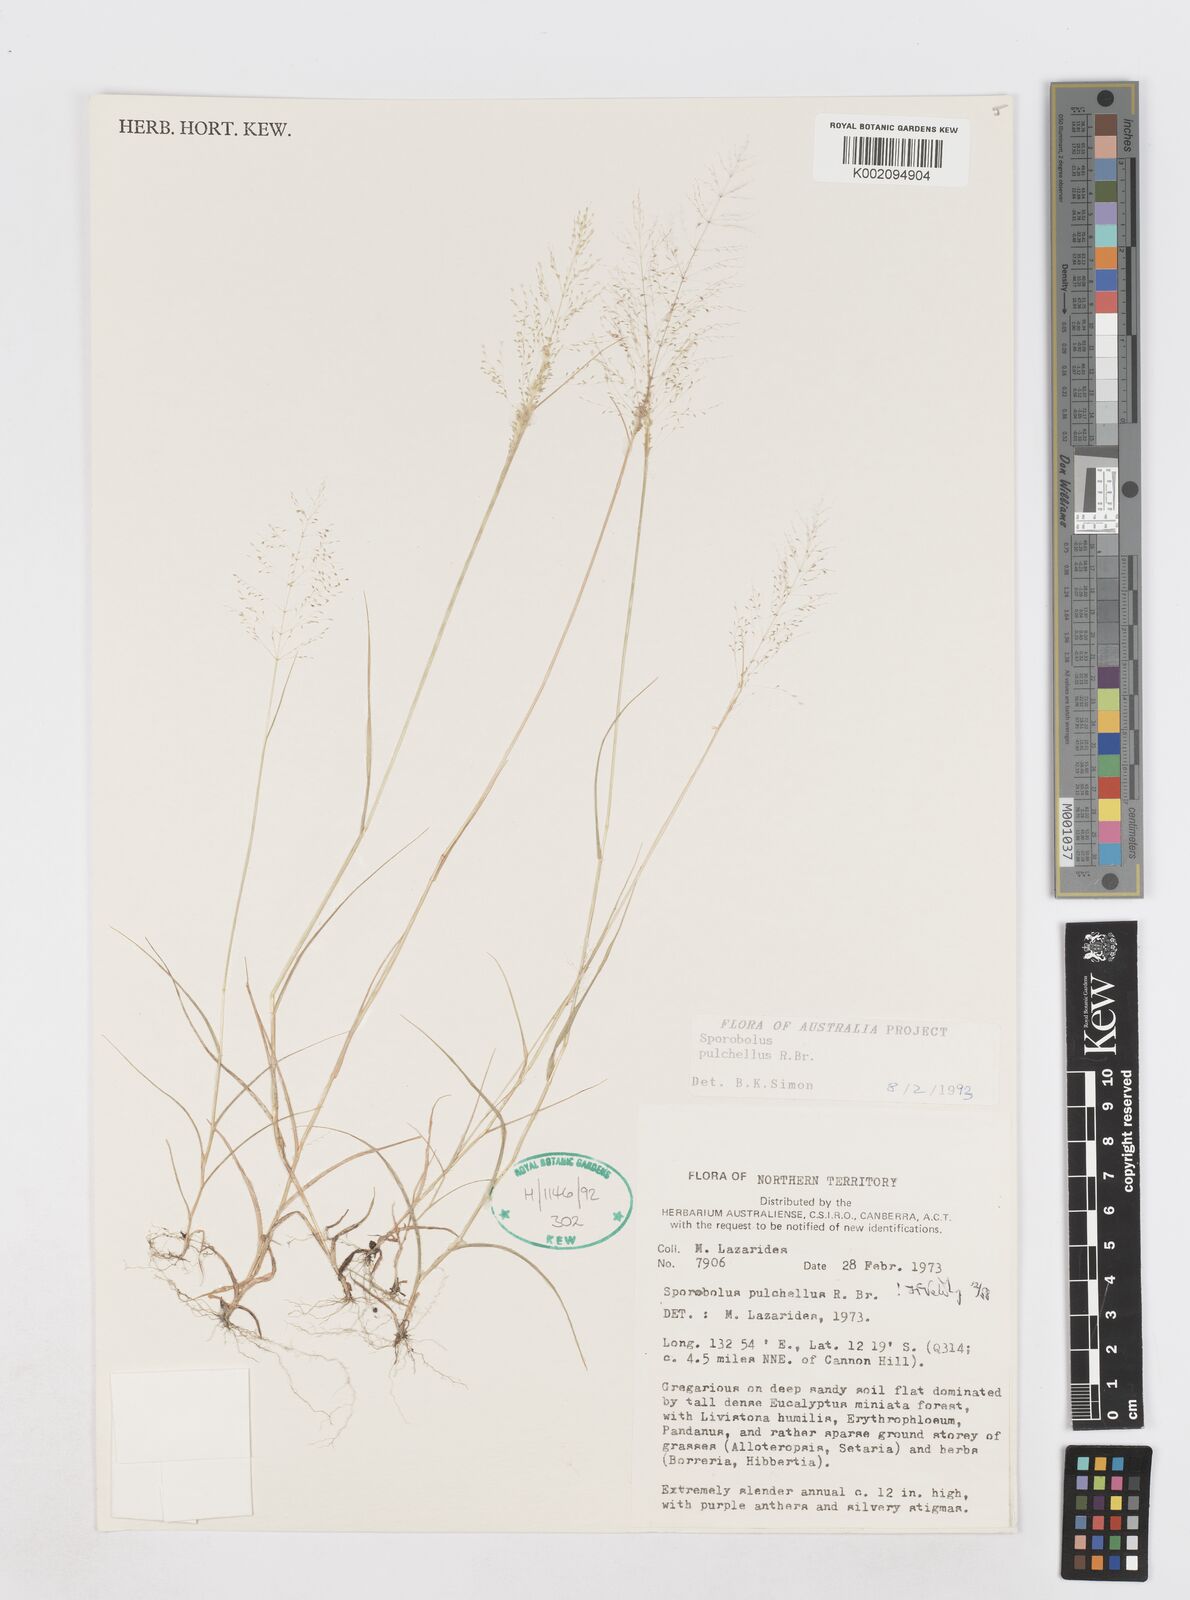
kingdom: Plantae
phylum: Tracheophyta
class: Liliopsida
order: Poales
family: Poaceae
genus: Sporobolus
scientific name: Sporobolus pulchellus
